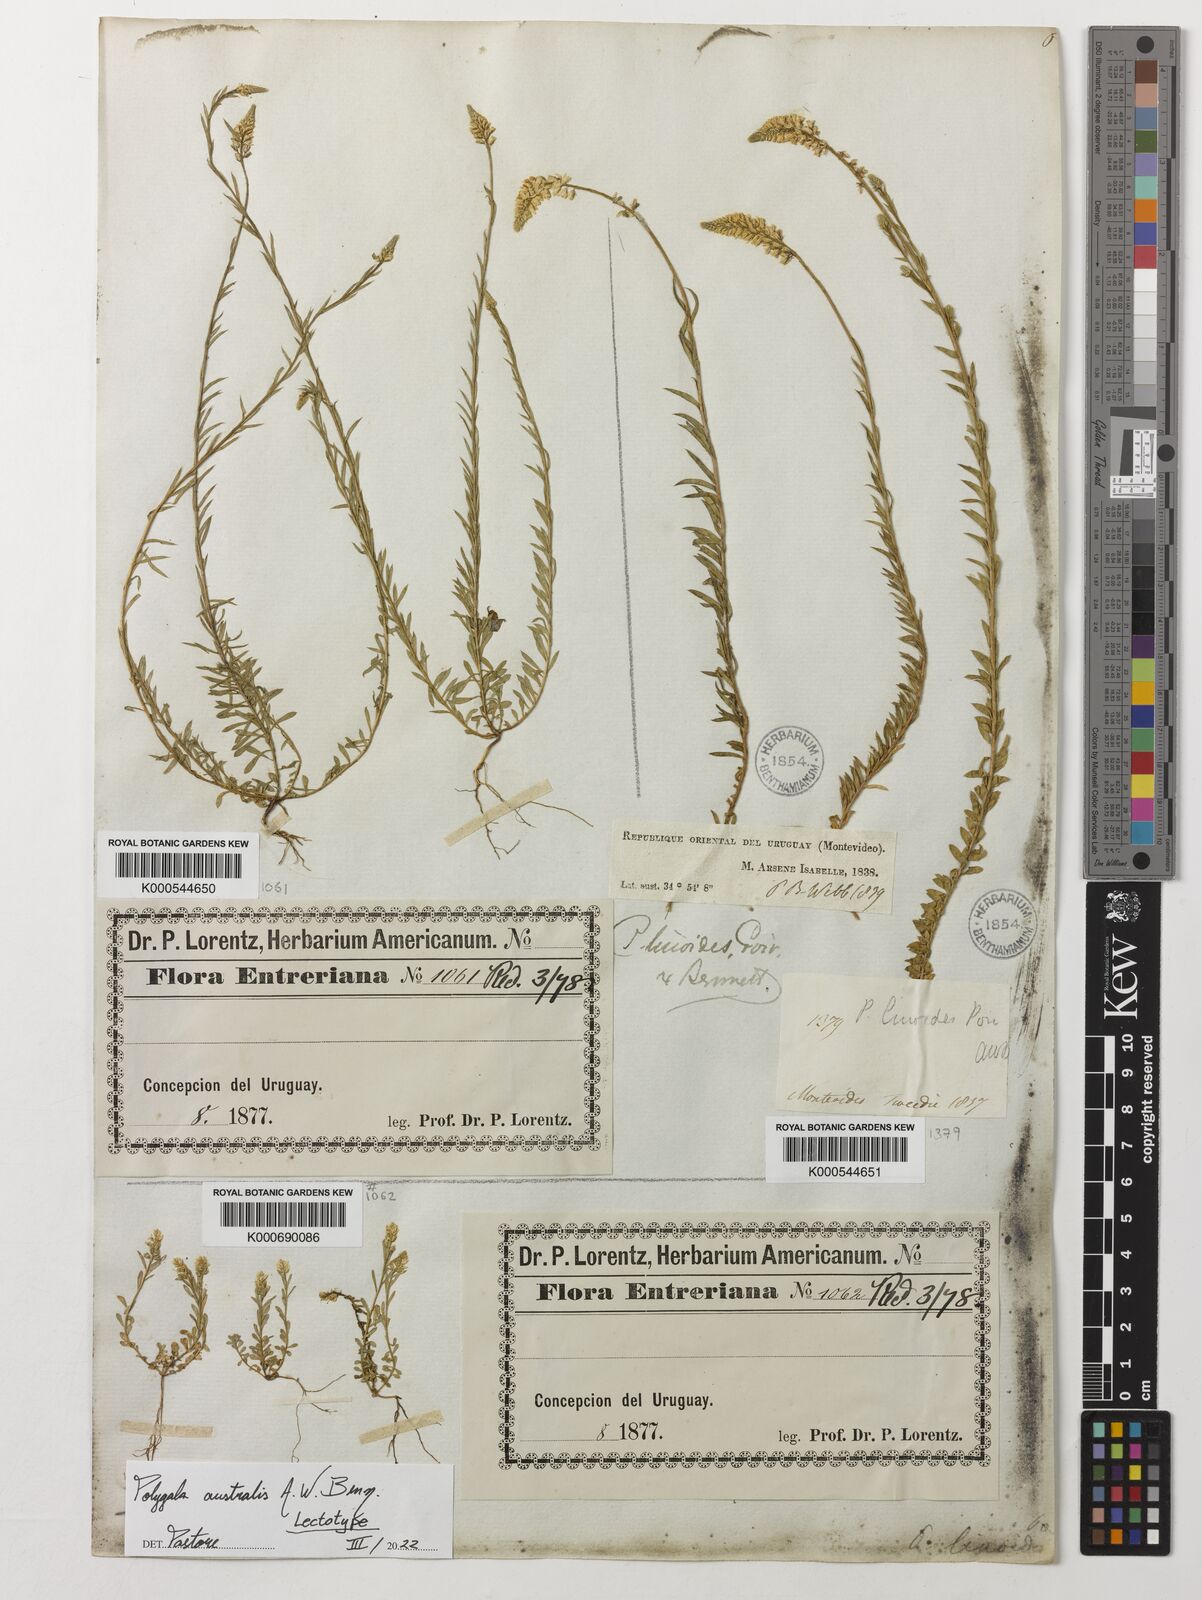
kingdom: Plantae
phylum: Tracheophyta
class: Magnoliopsida
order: Fabales
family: Polygalaceae
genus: Polygala
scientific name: Polygala linoides
